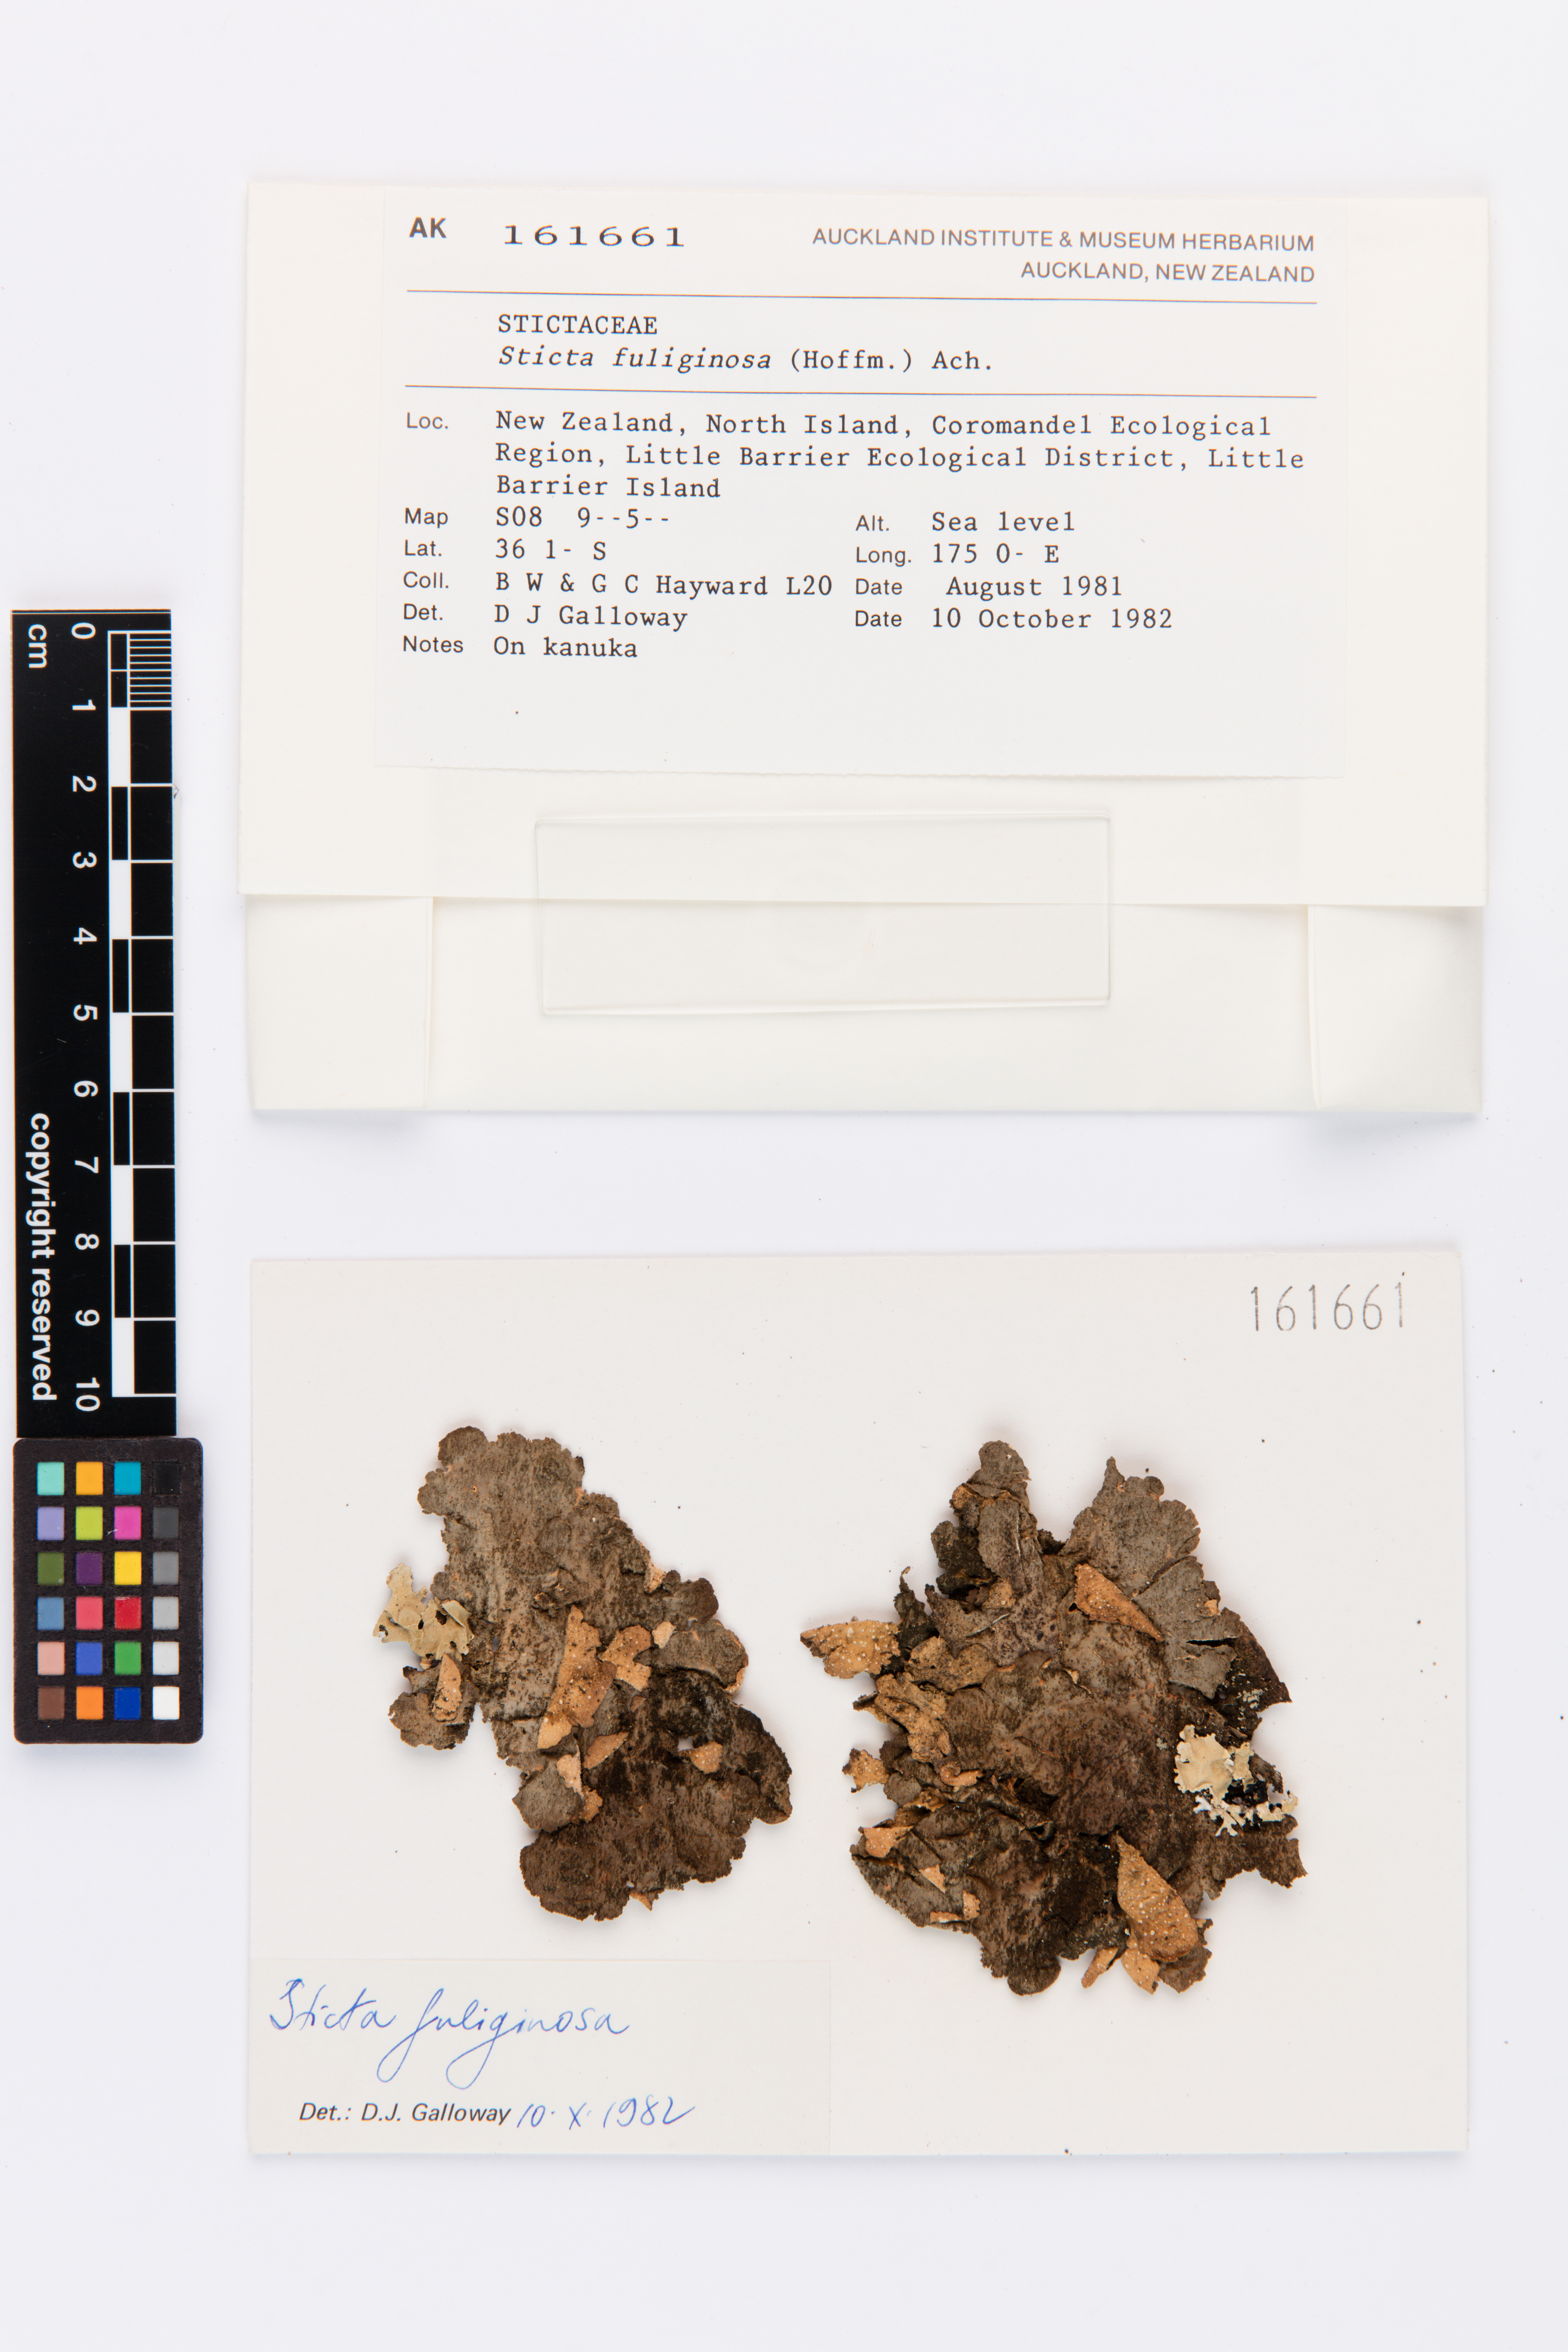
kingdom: Fungi
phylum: Ascomycota
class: Lecanoromycetes
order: Peltigerales
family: Lobariaceae
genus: Sticta
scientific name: Sticta fuliginosa
